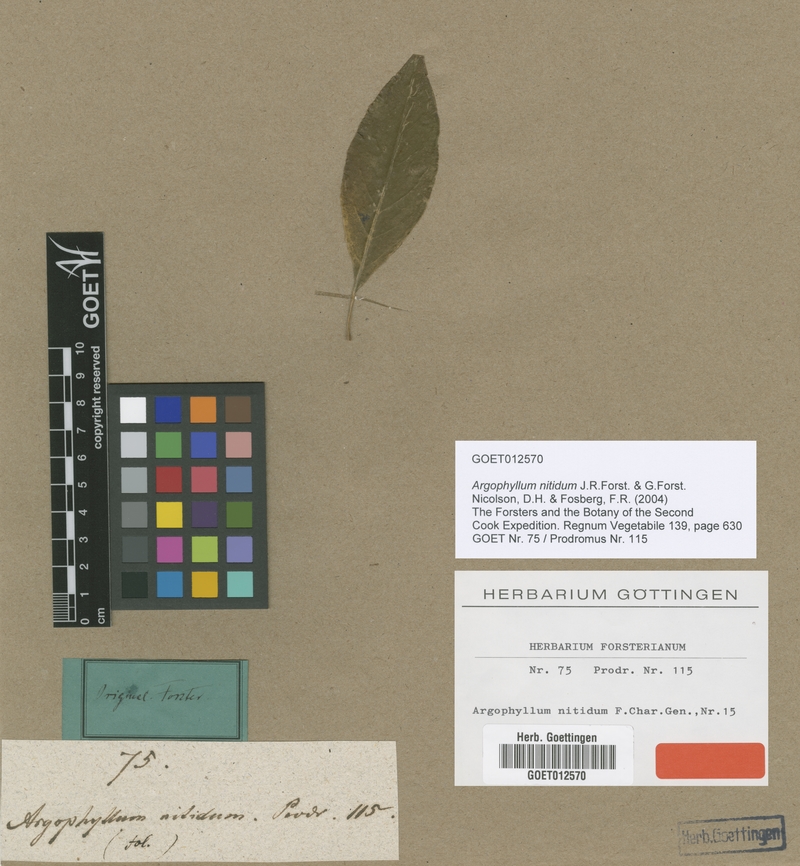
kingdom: Plantae
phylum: Tracheophyta
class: Magnoliopsida
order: Asterales
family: Argophyllaceae
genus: Argophyllum
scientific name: Argophyllum nitidum
